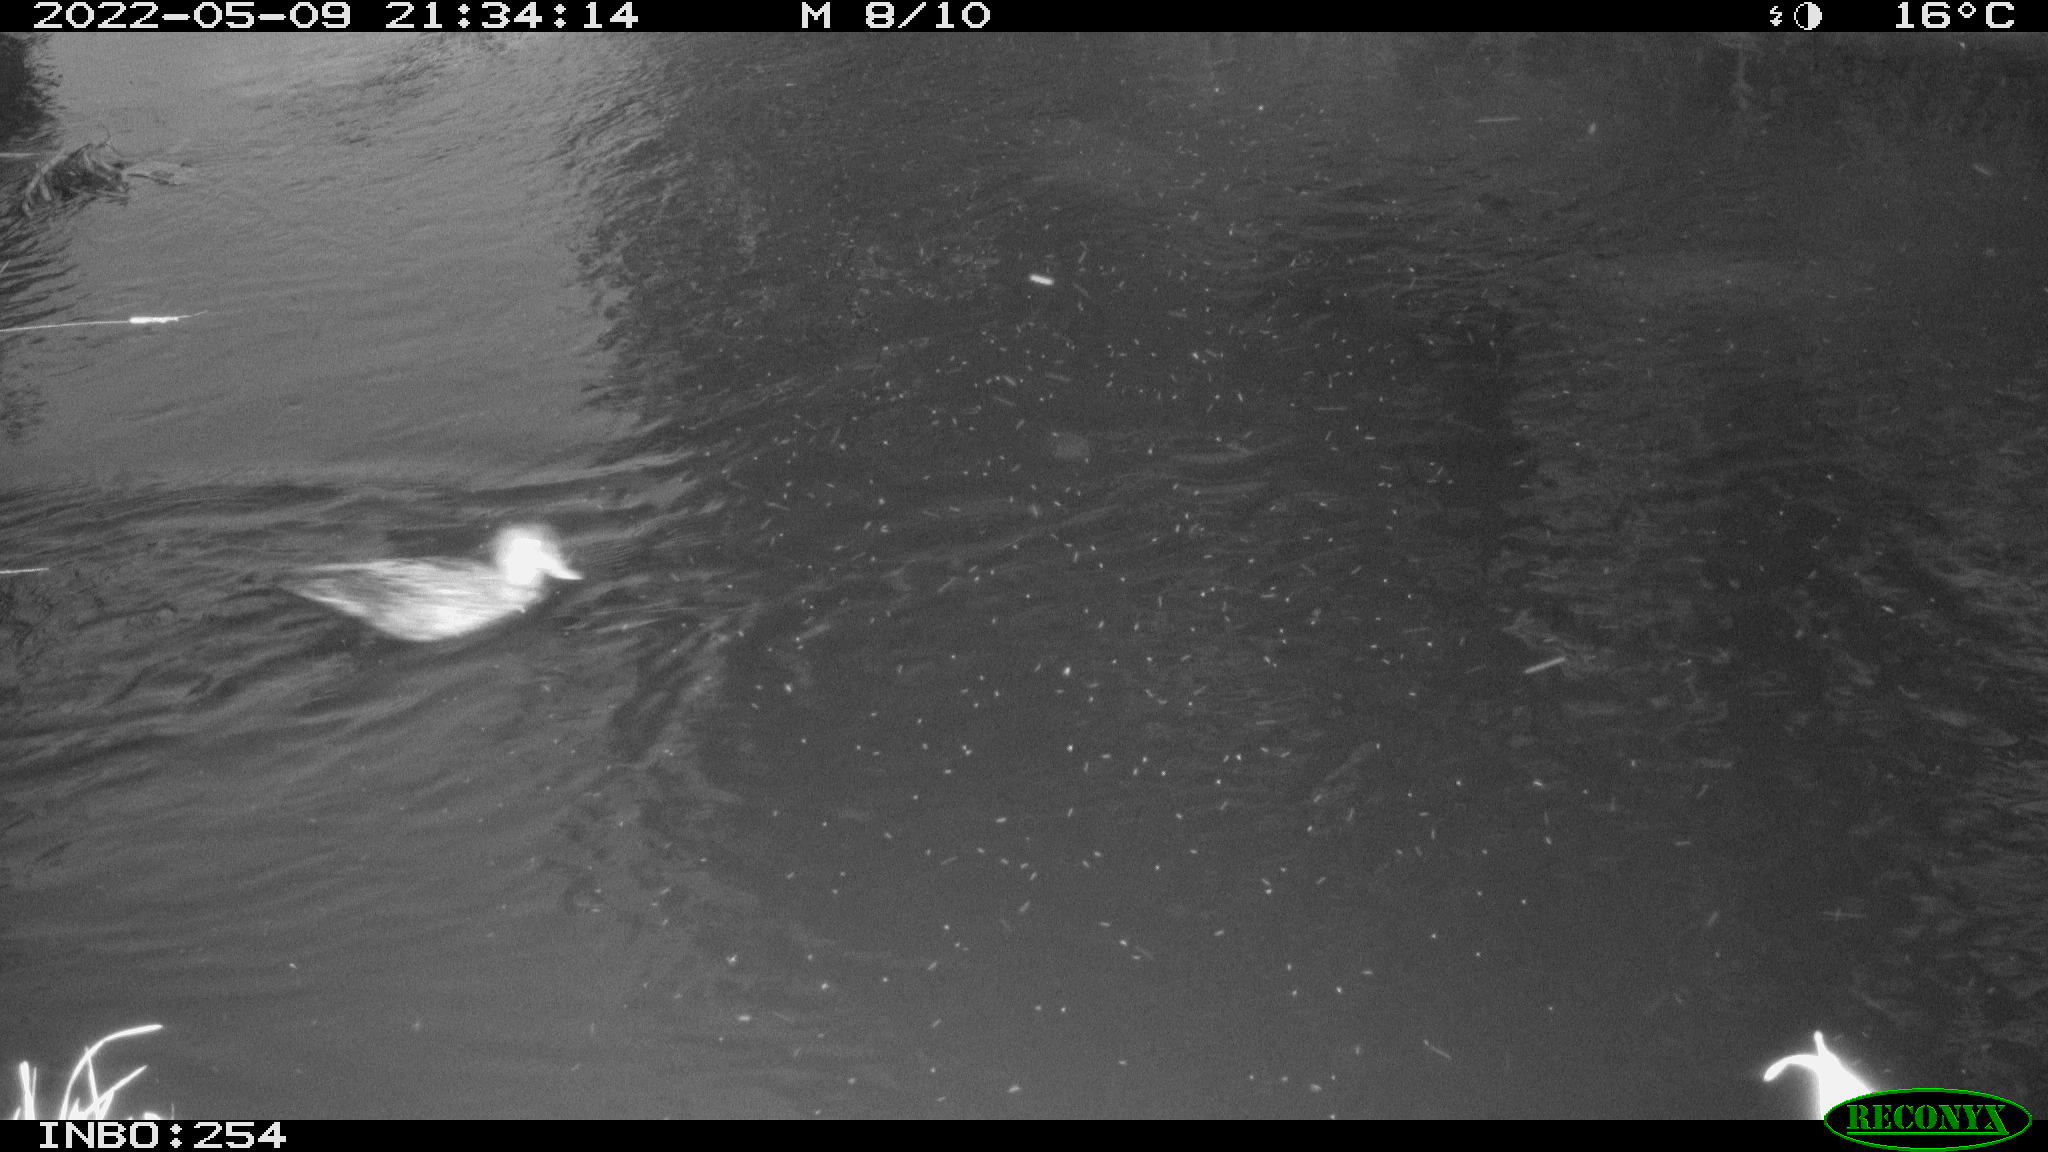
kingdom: Animalia
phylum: Chordata
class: Aves
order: Anseriformes
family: Anatidae
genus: Anas
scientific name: Anas platyrhynchos
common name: Mallard
